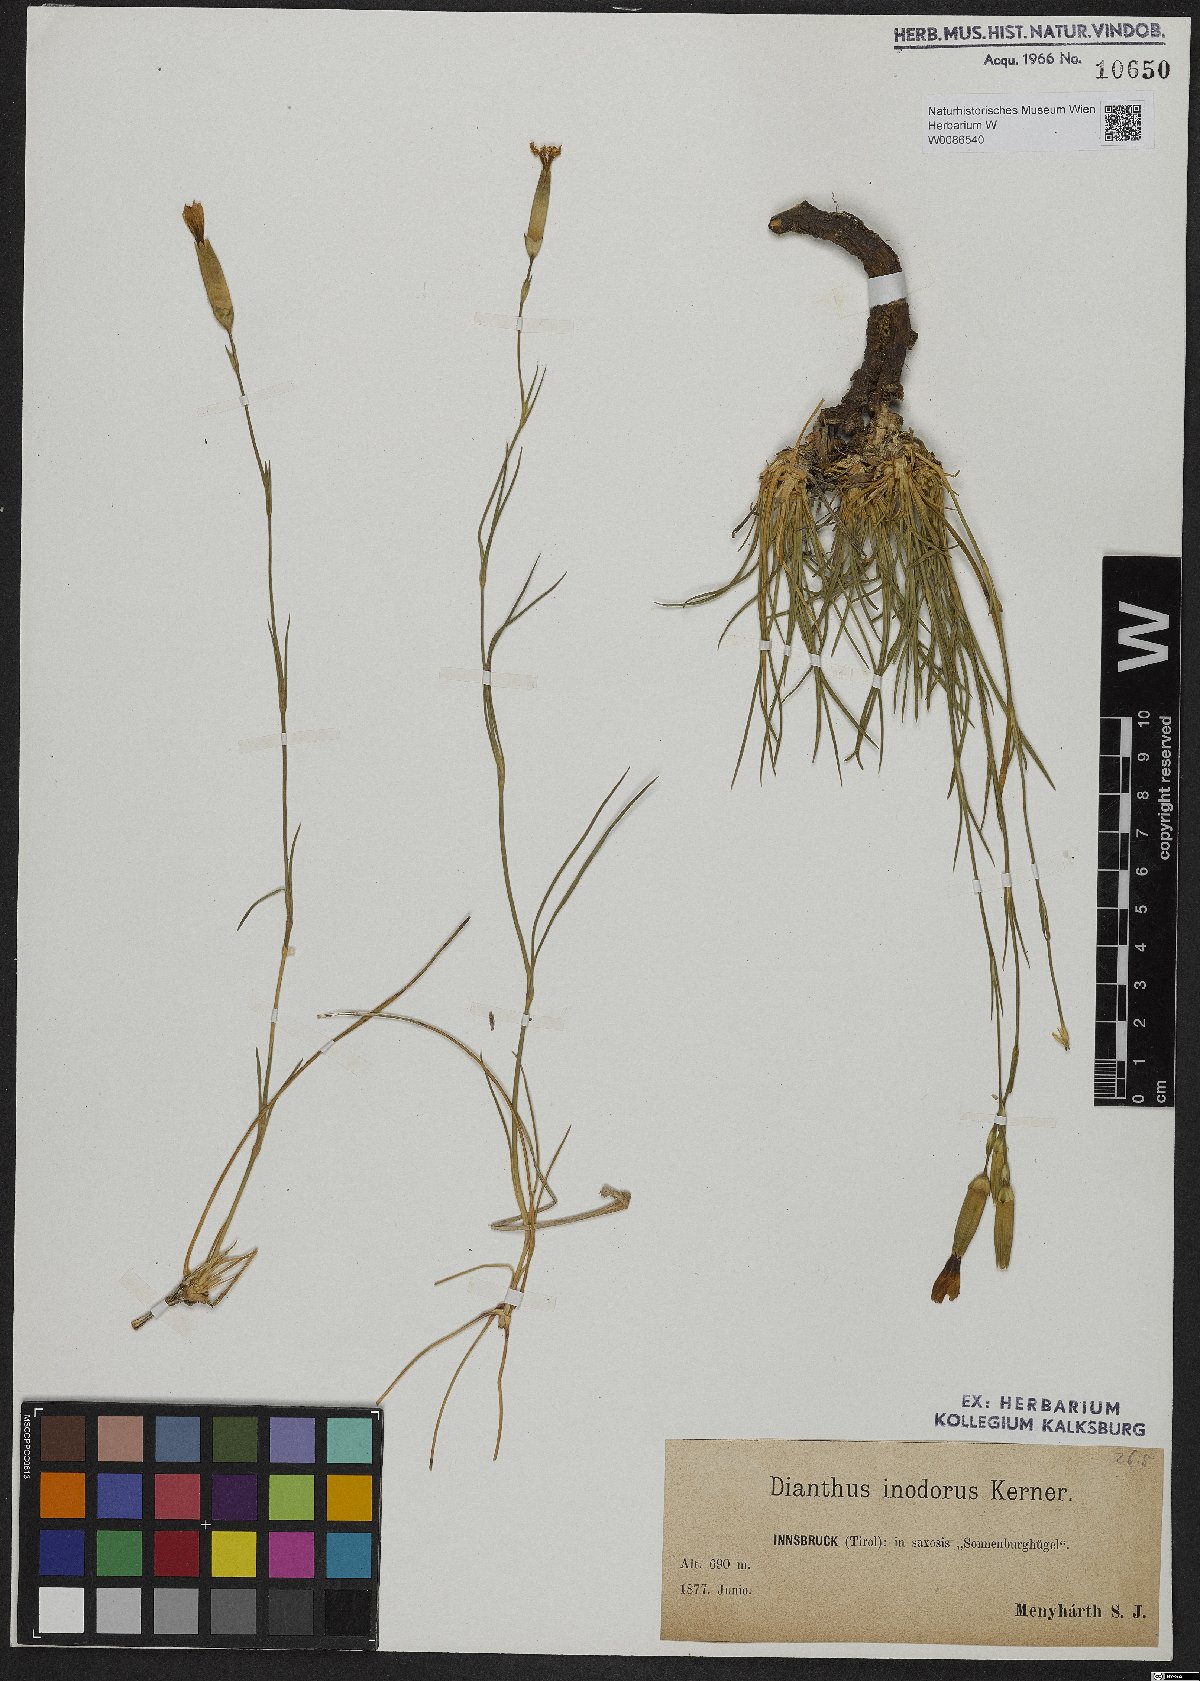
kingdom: Plantae
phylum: Tracheophyta
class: Magnoliopsida
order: Caryophyllales
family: Caryophyllaceae
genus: Dianthus
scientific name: Dianthus sylvestris
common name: Wood pink
